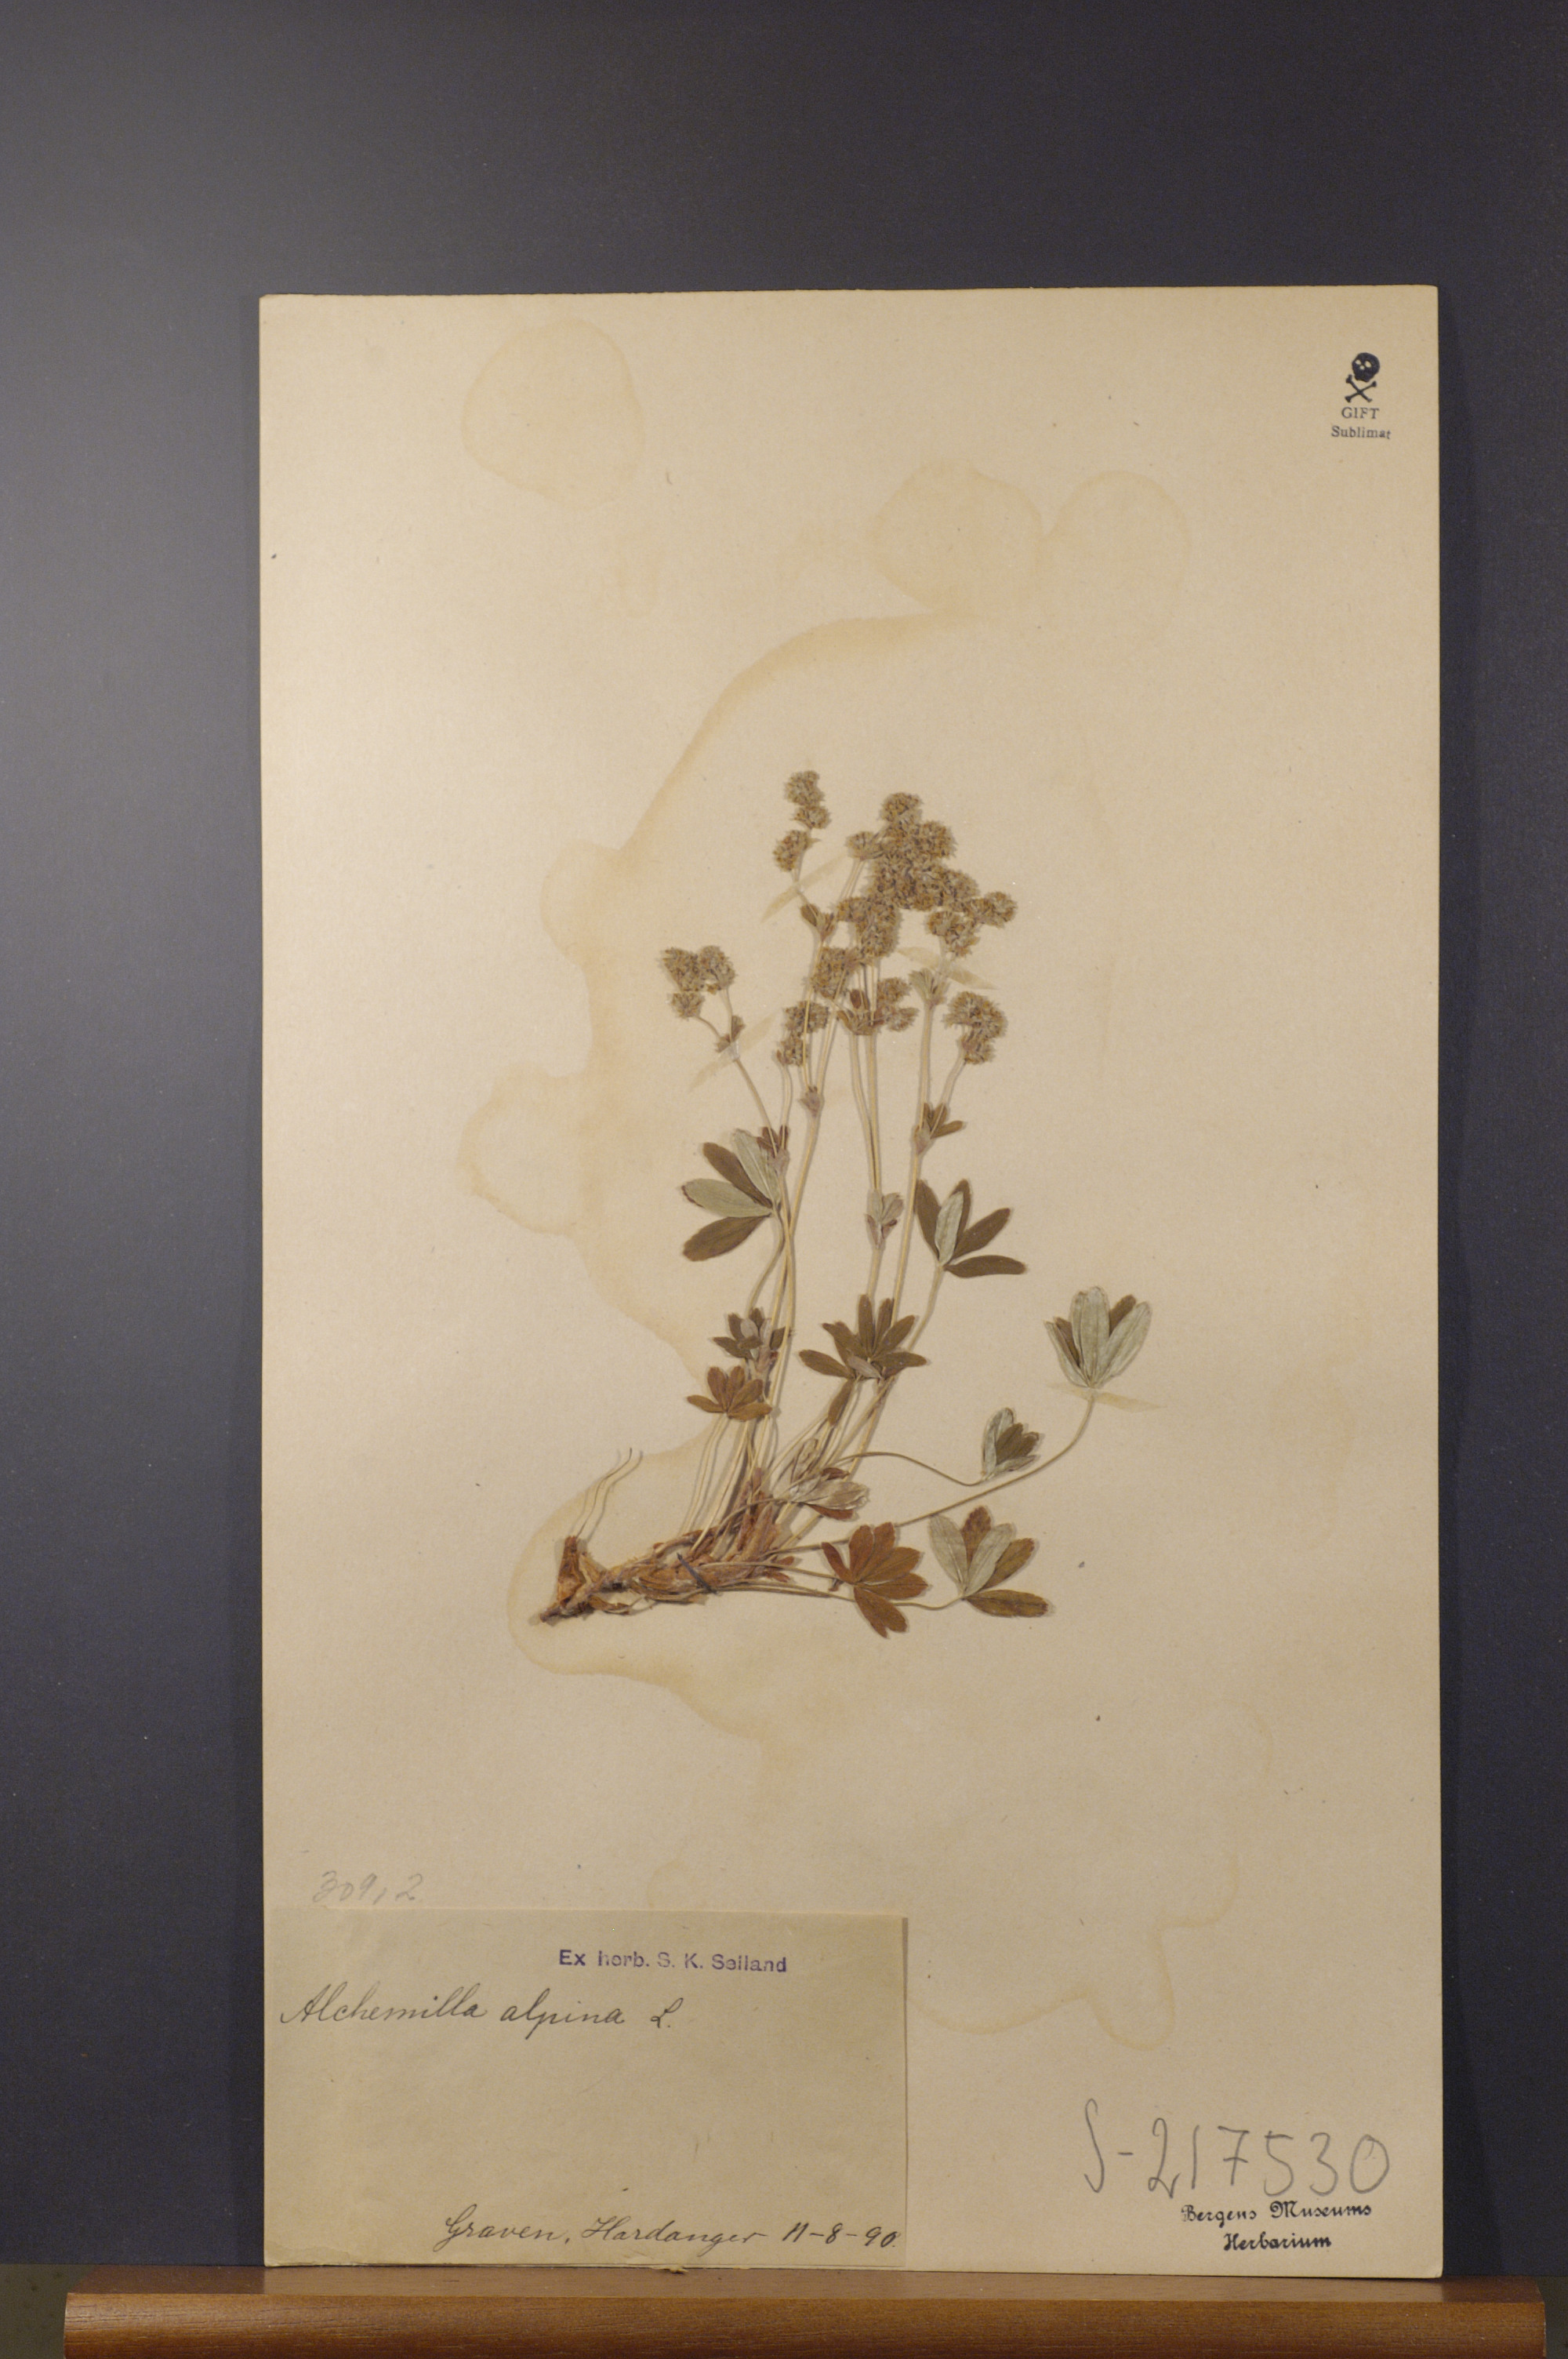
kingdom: Plantae
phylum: Tracheophyta
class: Magnoliopsida
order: Rosales
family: Rosaceae
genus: Alchemilla
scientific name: Alchemilla alpina
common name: Alpine lady's-mantle
